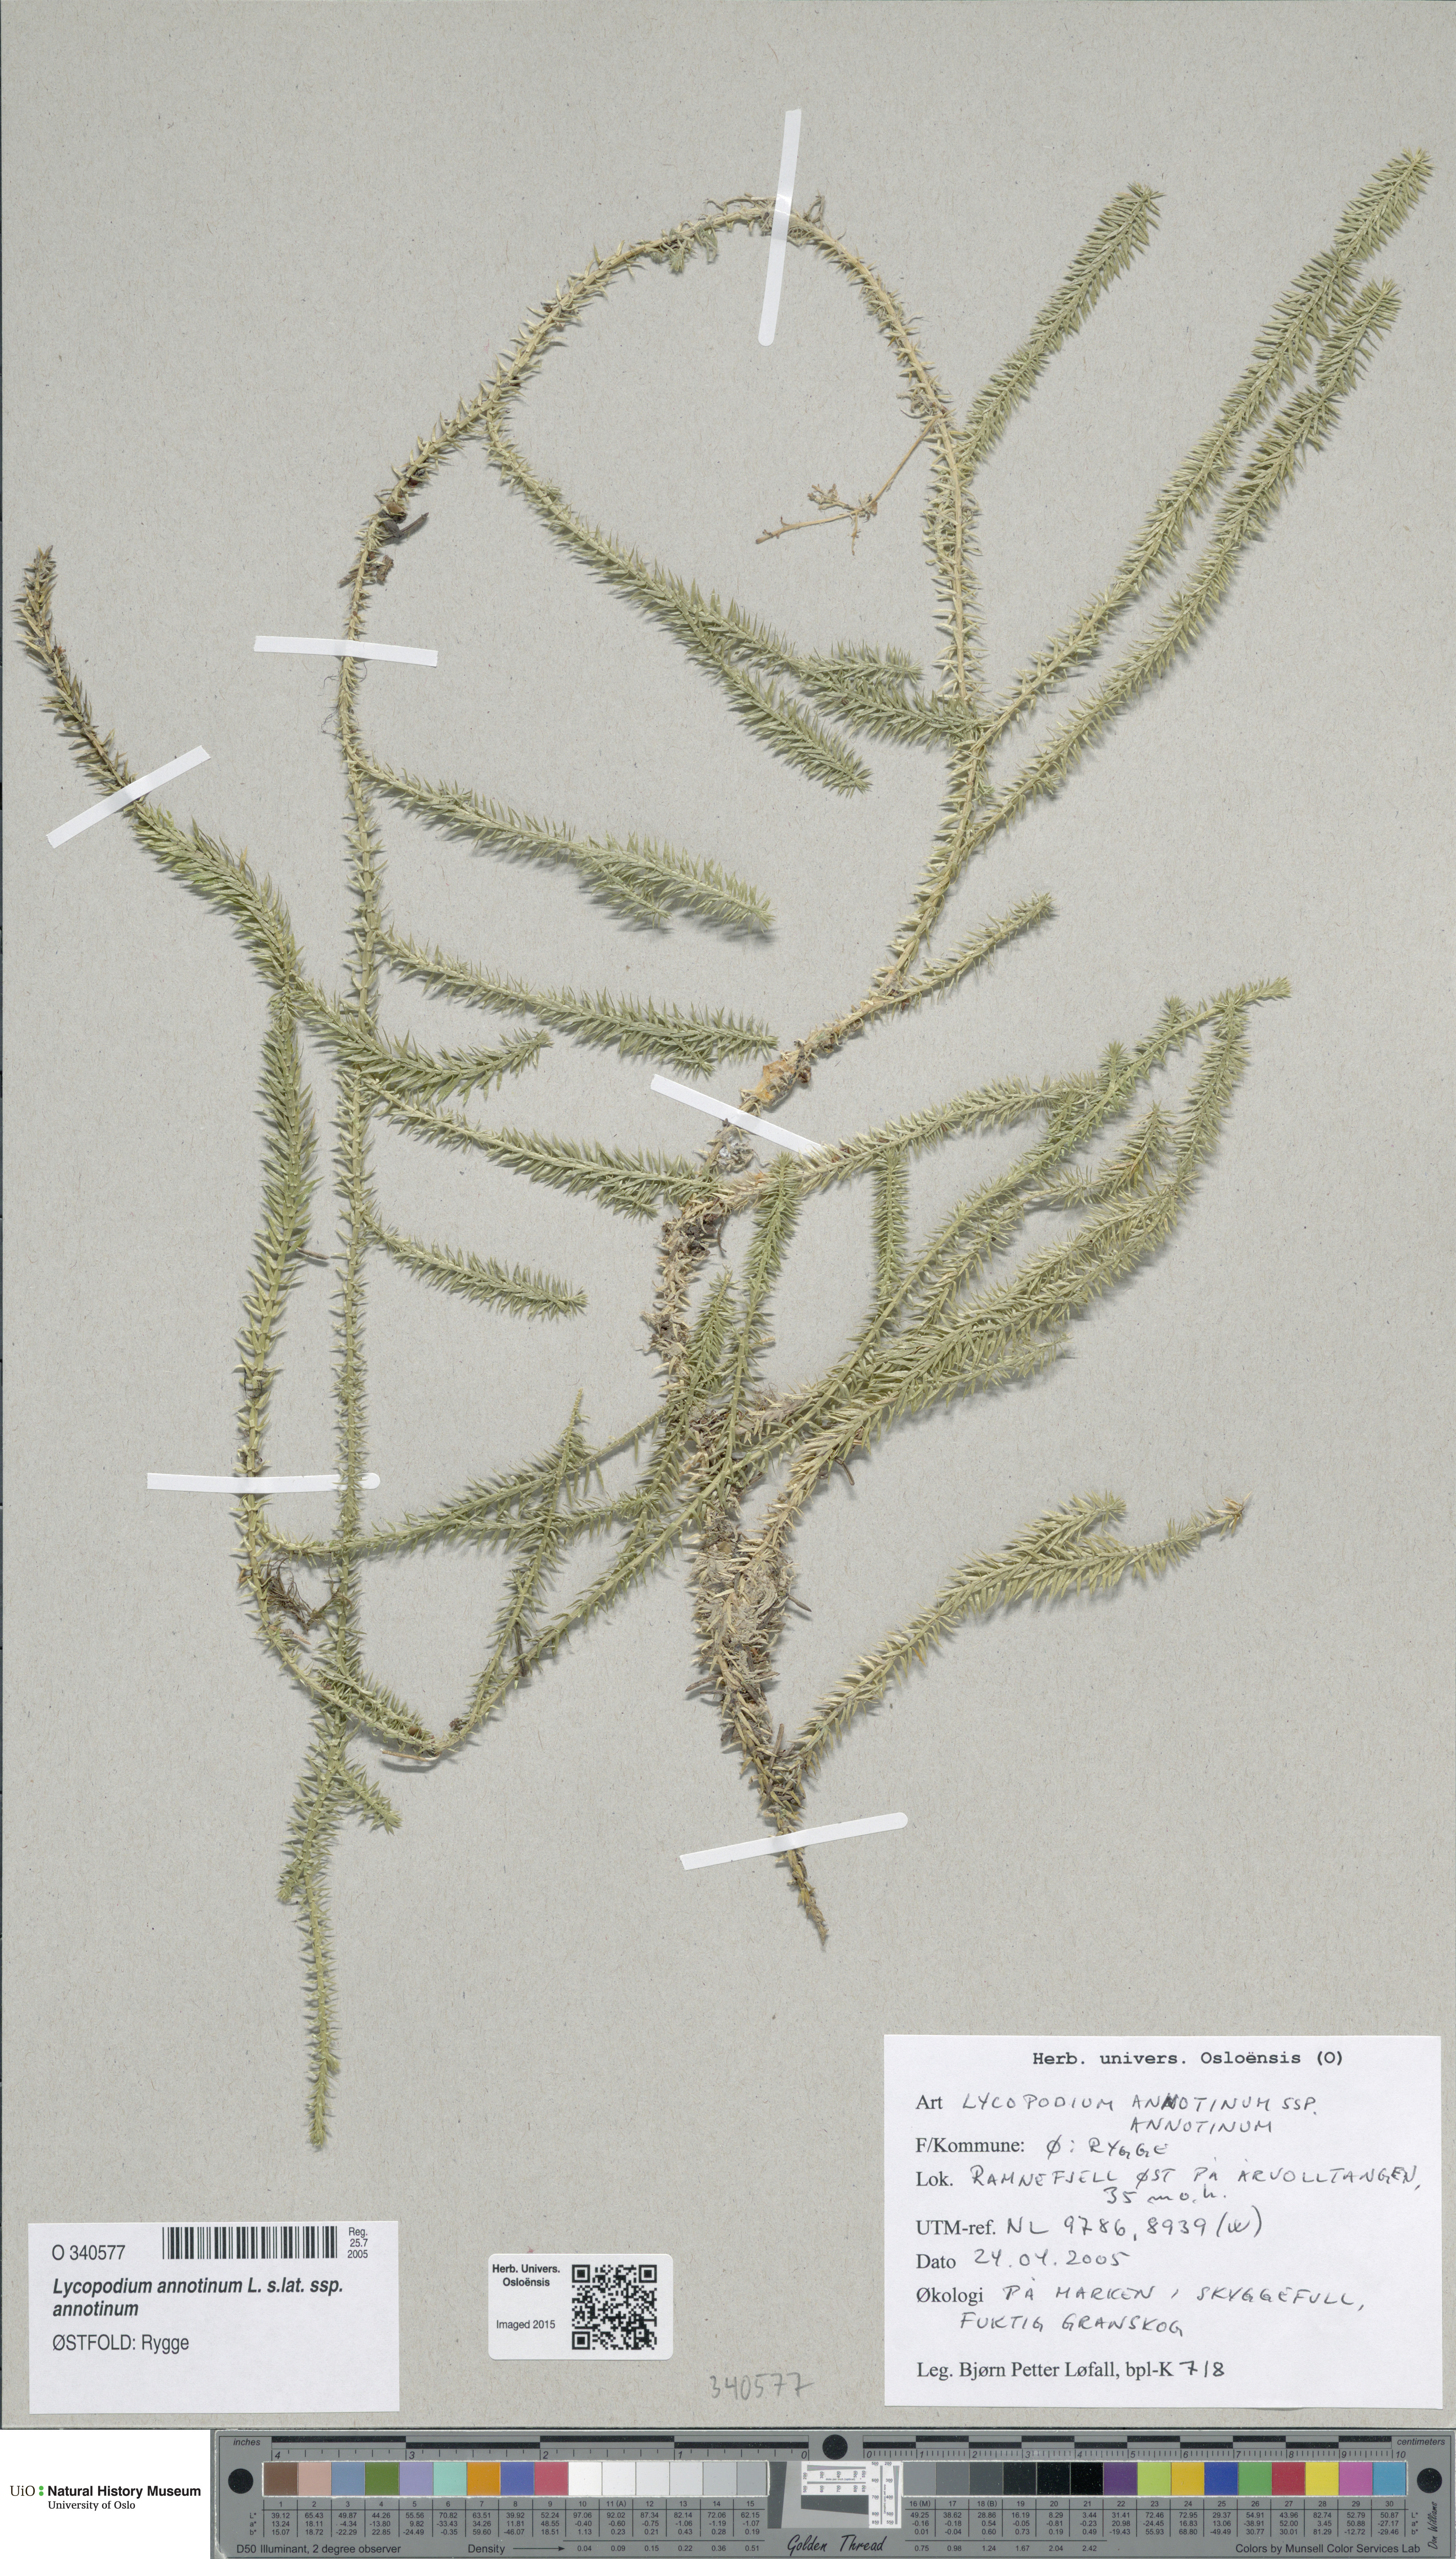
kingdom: Plantae
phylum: Tracheophyta
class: Lycopodiopsida
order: Lycopodiales
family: Lycopodiaceae
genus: Spinulum
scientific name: Spinulum annotinum
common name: Interrupted club-moss
